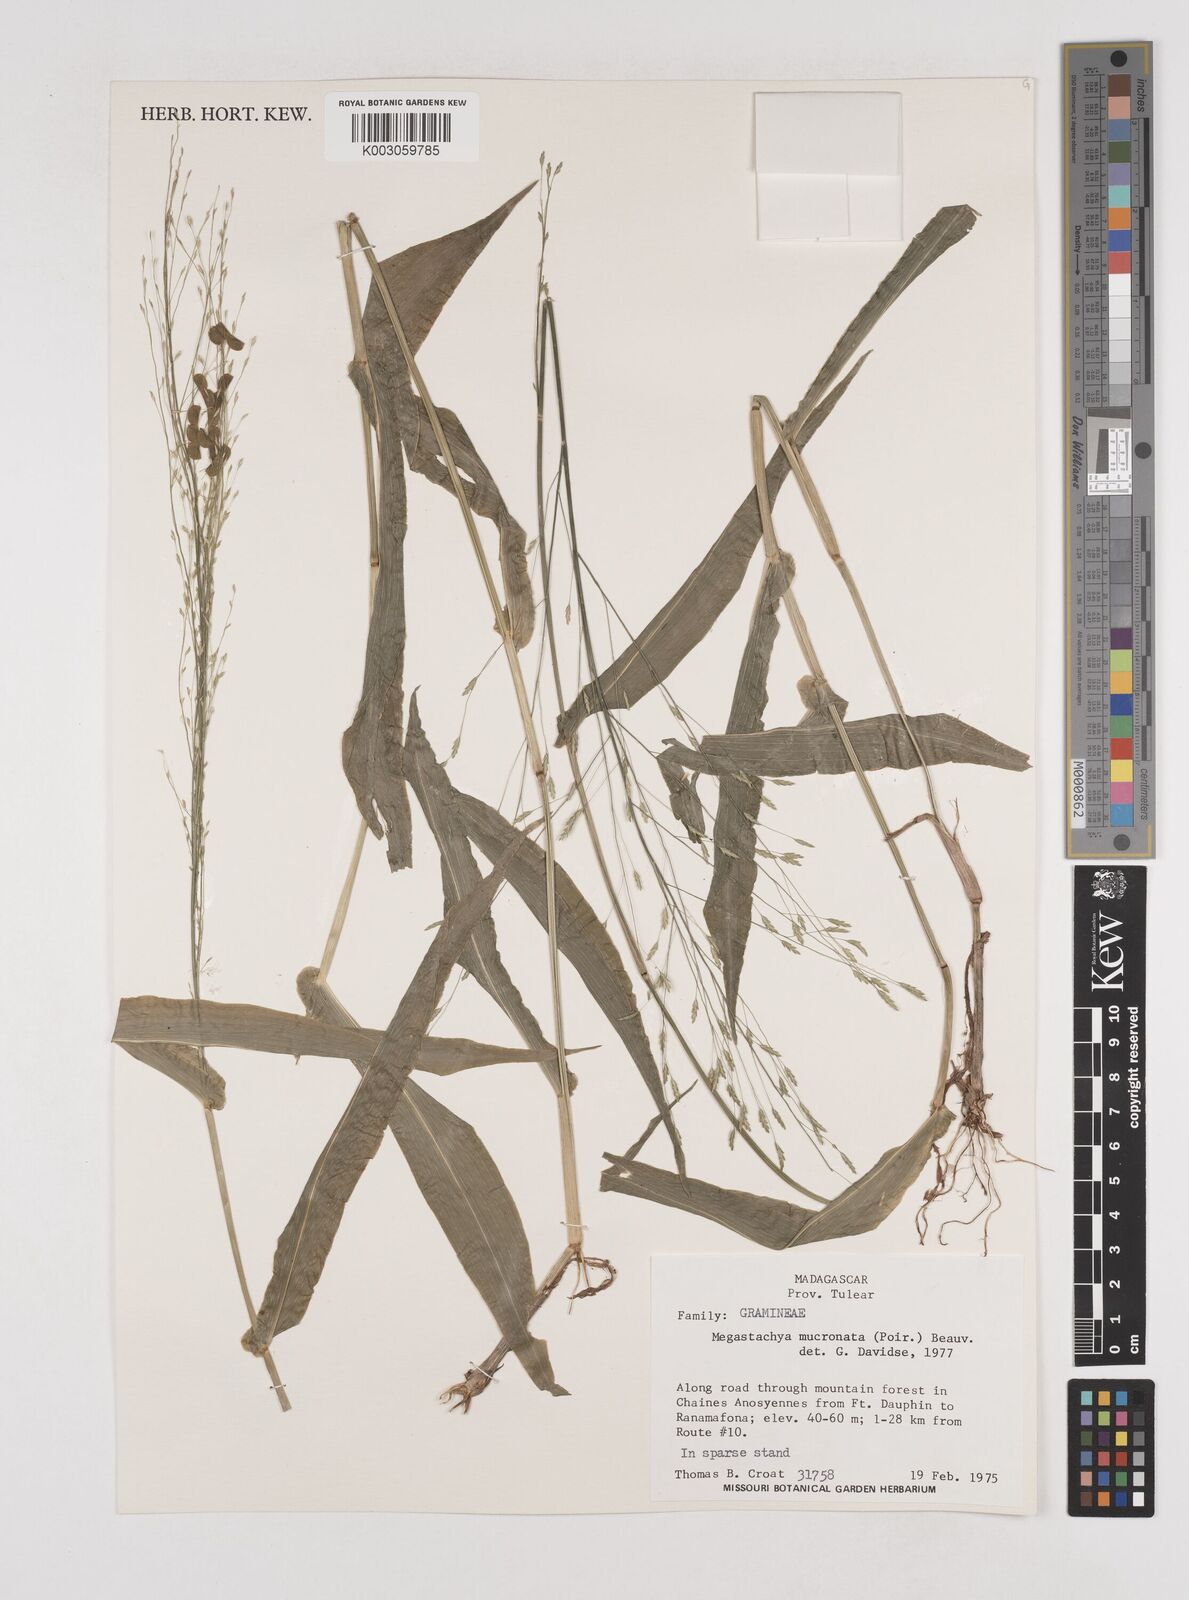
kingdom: Plantae
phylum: Tracheophyta
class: Liliopsida
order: Poales
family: Poaceae
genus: Megastachya
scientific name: Megastachya madagascariensis
